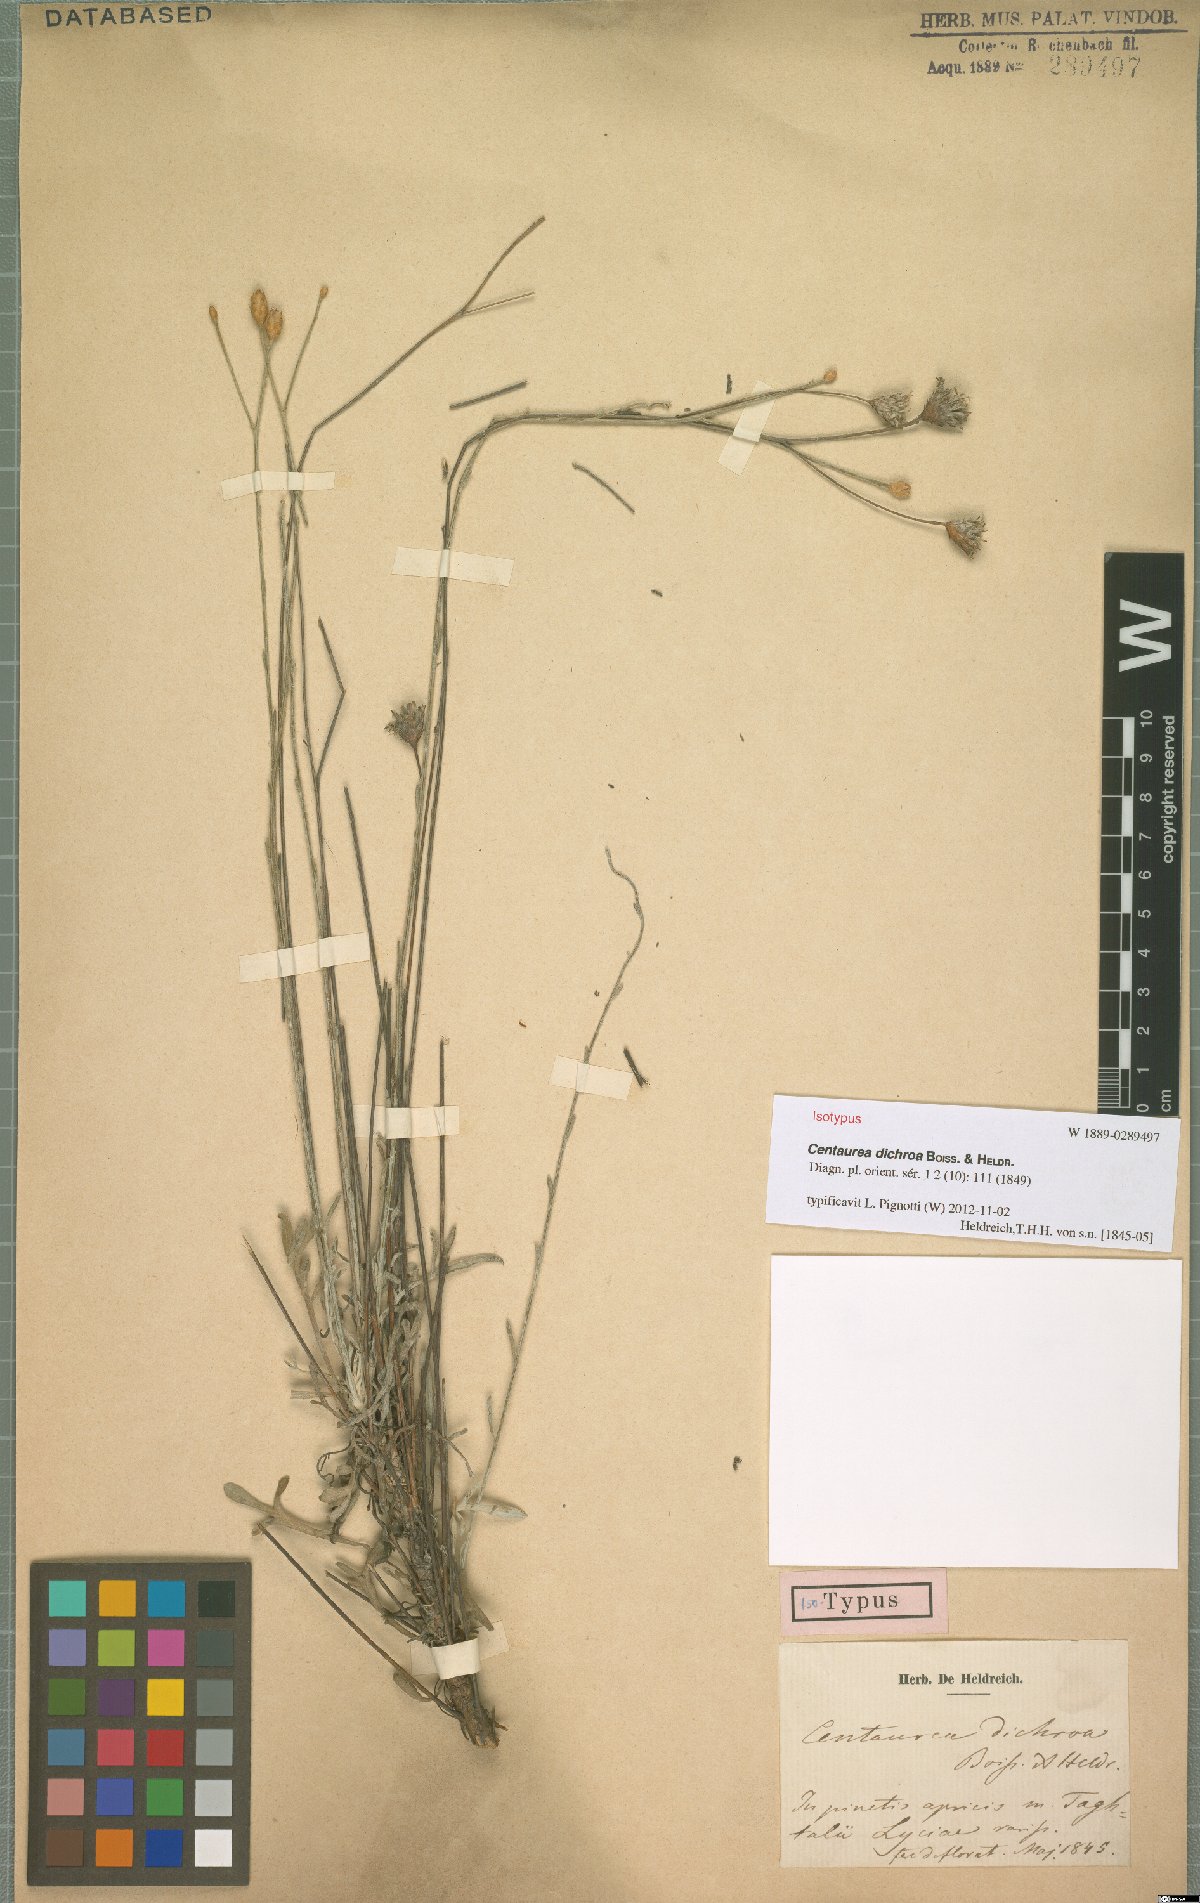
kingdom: Plantae
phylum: Tracheophyta
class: Magnoliopsida
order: Asterales
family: Asteraceae
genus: Centaurea
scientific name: Centaurea dichroa
